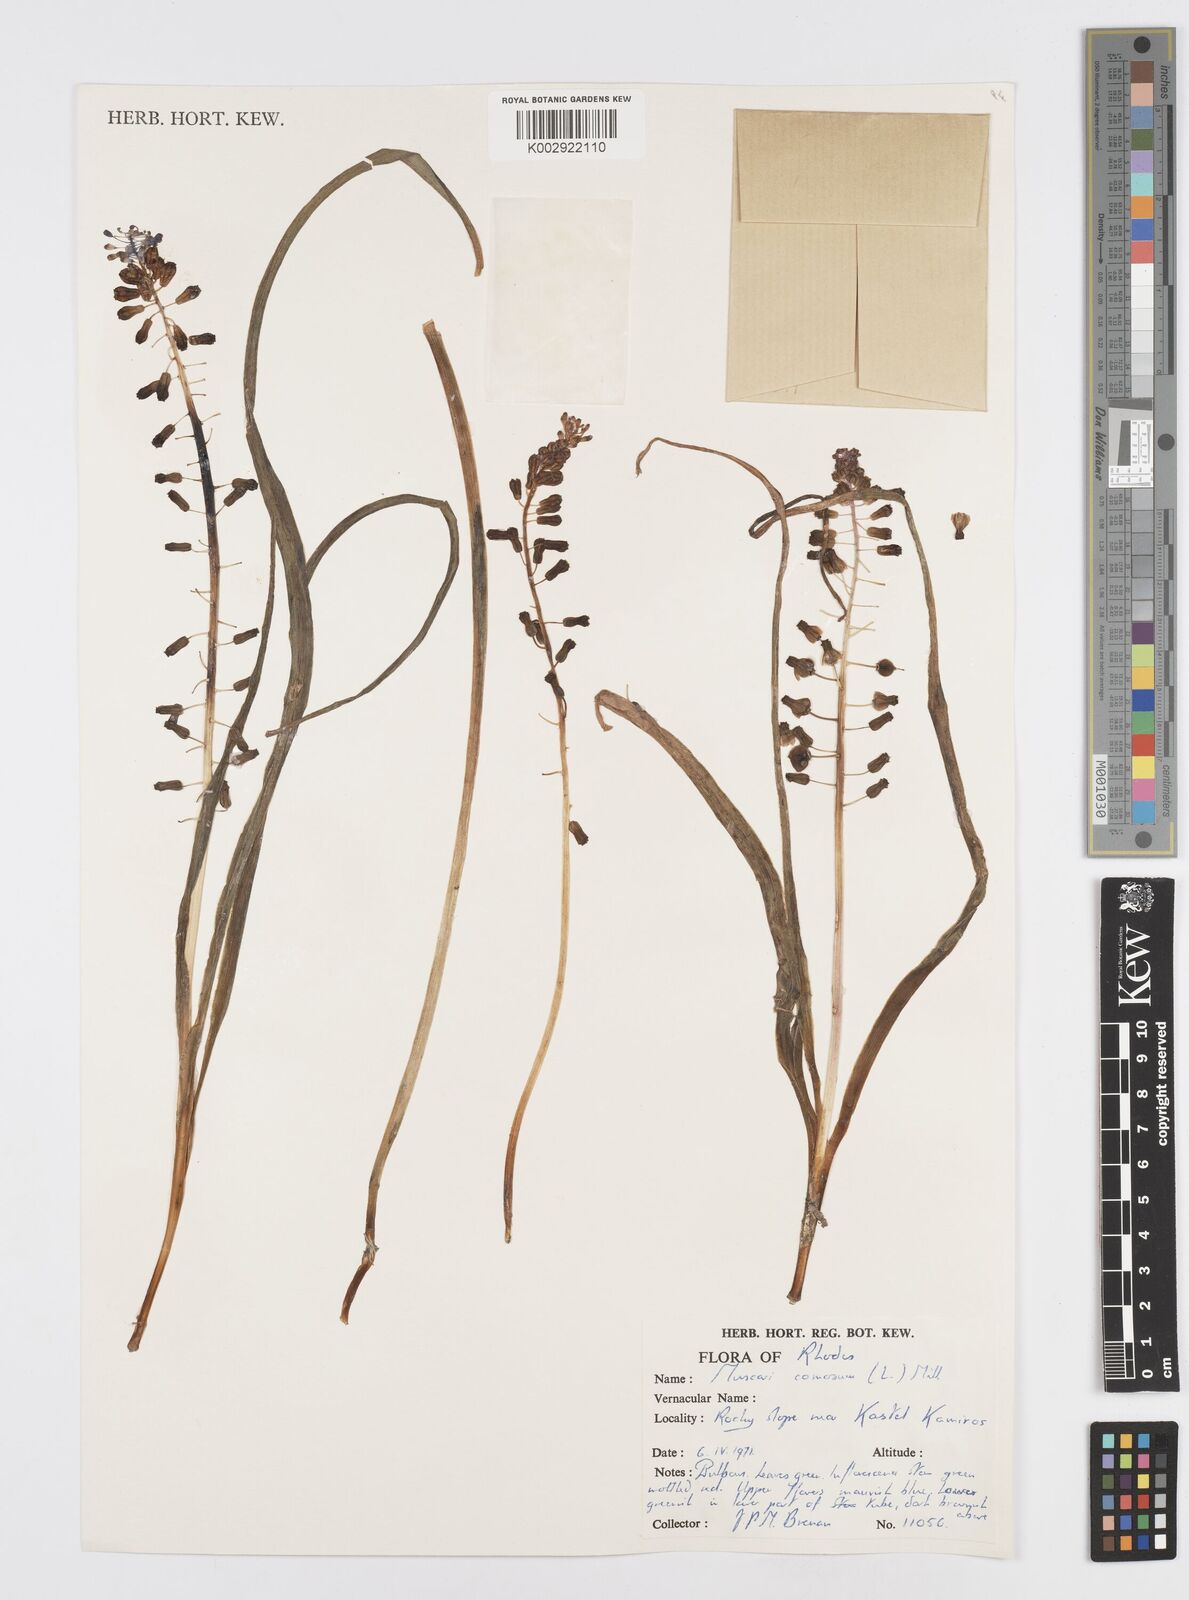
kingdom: Plantae
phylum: Tracheophyta
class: Liliopsida
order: Asparagales
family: Asparagaceae
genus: Muscari
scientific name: Muscari comosum
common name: Tassel hyacinth
